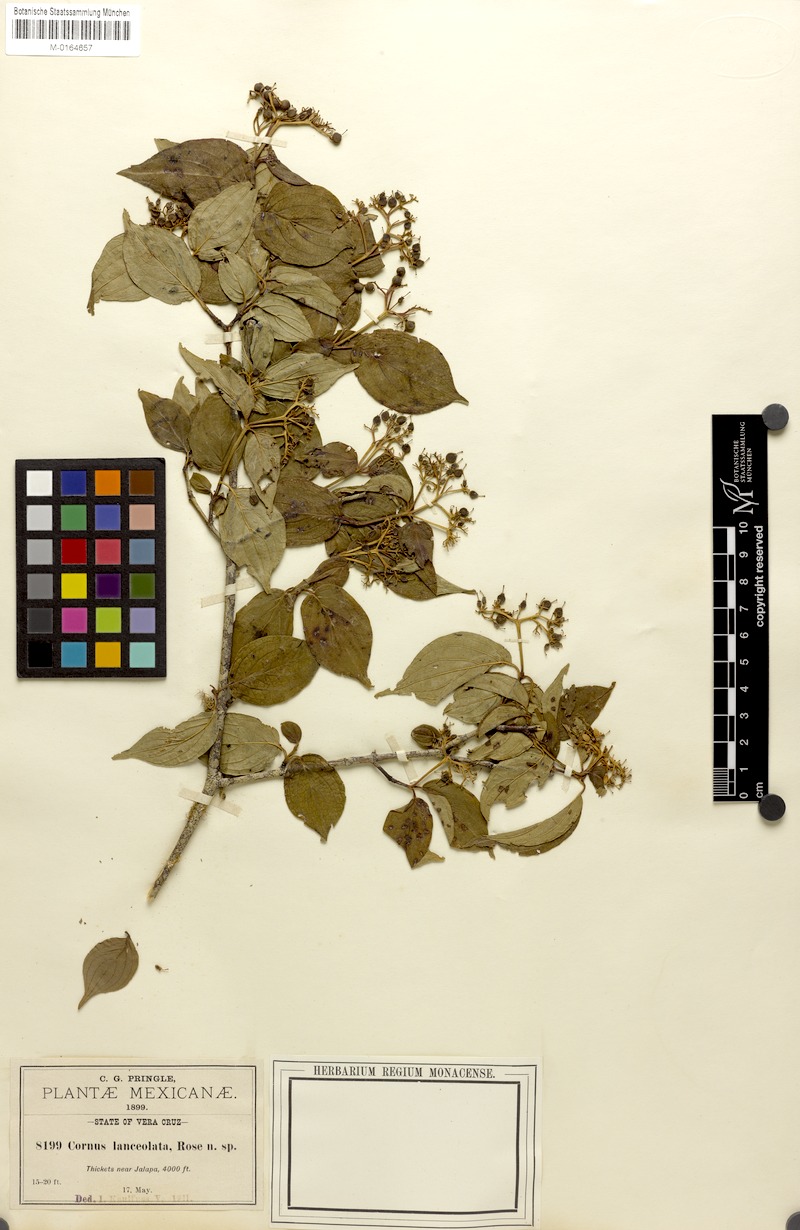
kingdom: Plantae
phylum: Tracheophyta
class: Magnoliopsida
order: Cornales
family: Cornaceae
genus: Cornus
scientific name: Cornus excelsa
